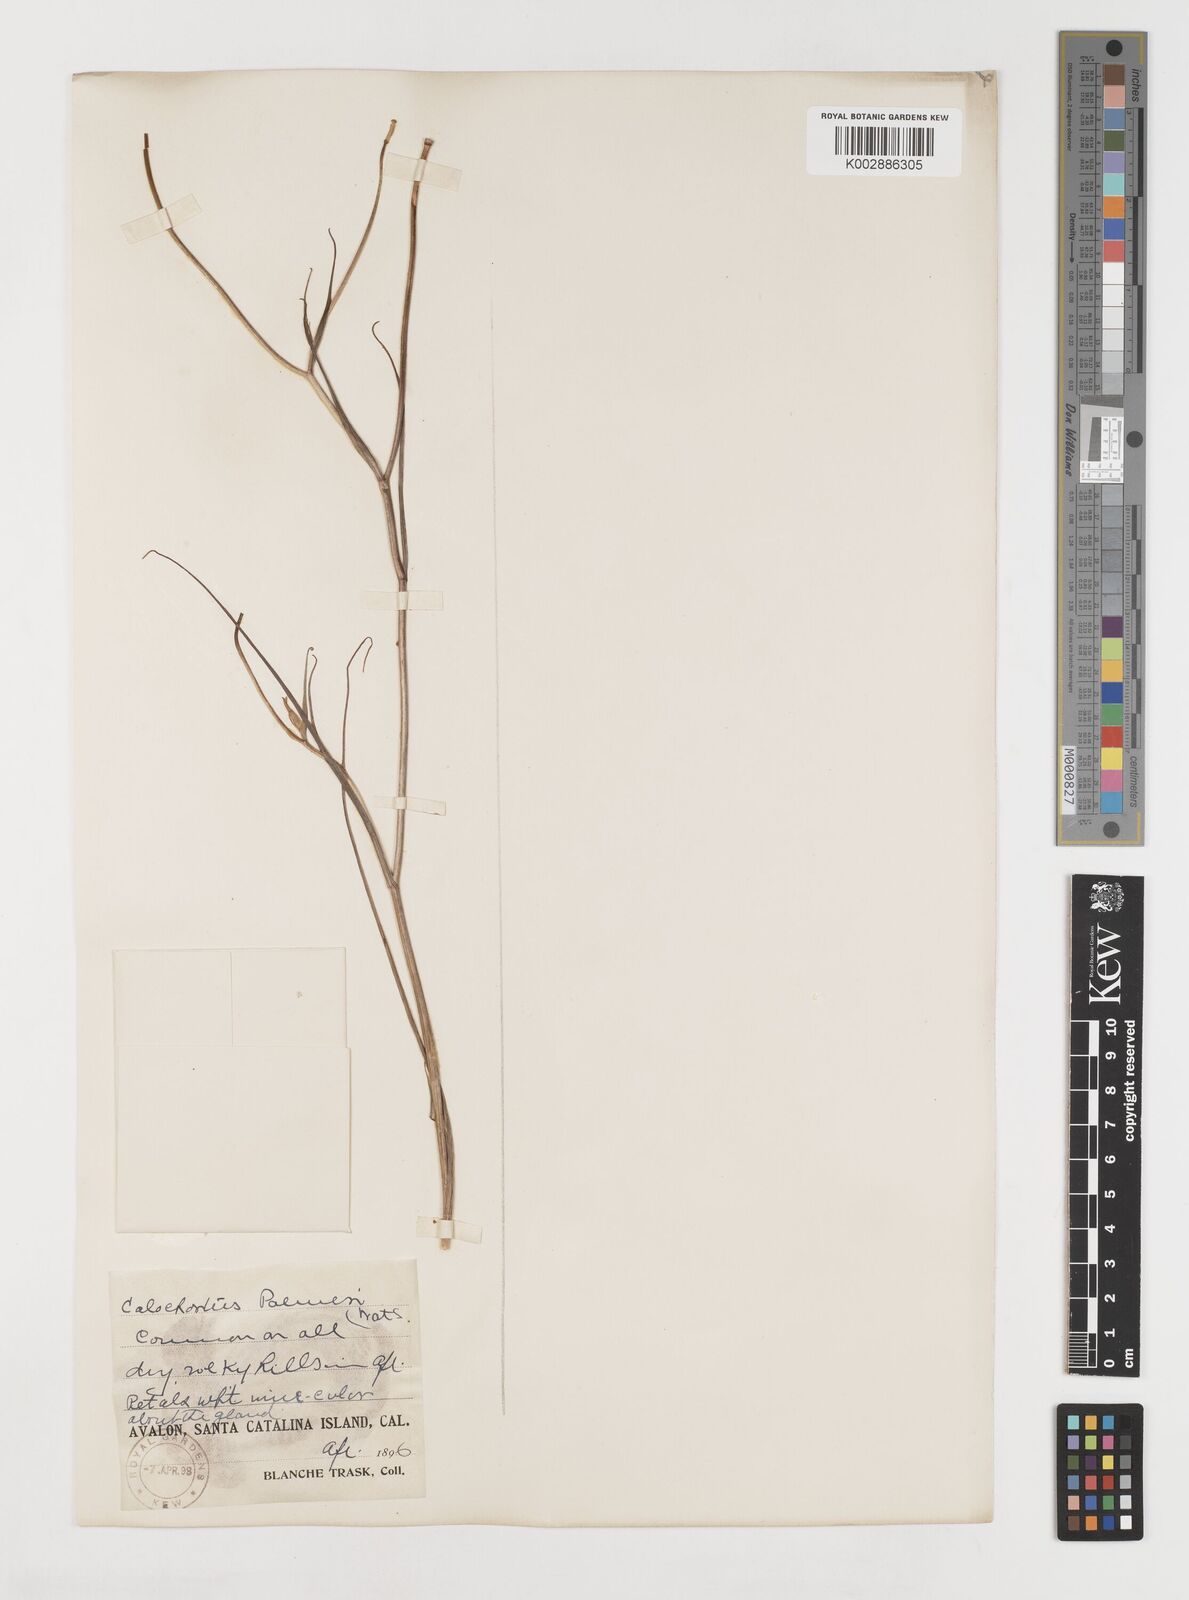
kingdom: Plantae
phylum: Tracheophyta
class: Liliopsida
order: Liliales
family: Liliaceae
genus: Calochortus
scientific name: Calochortus palmeri
